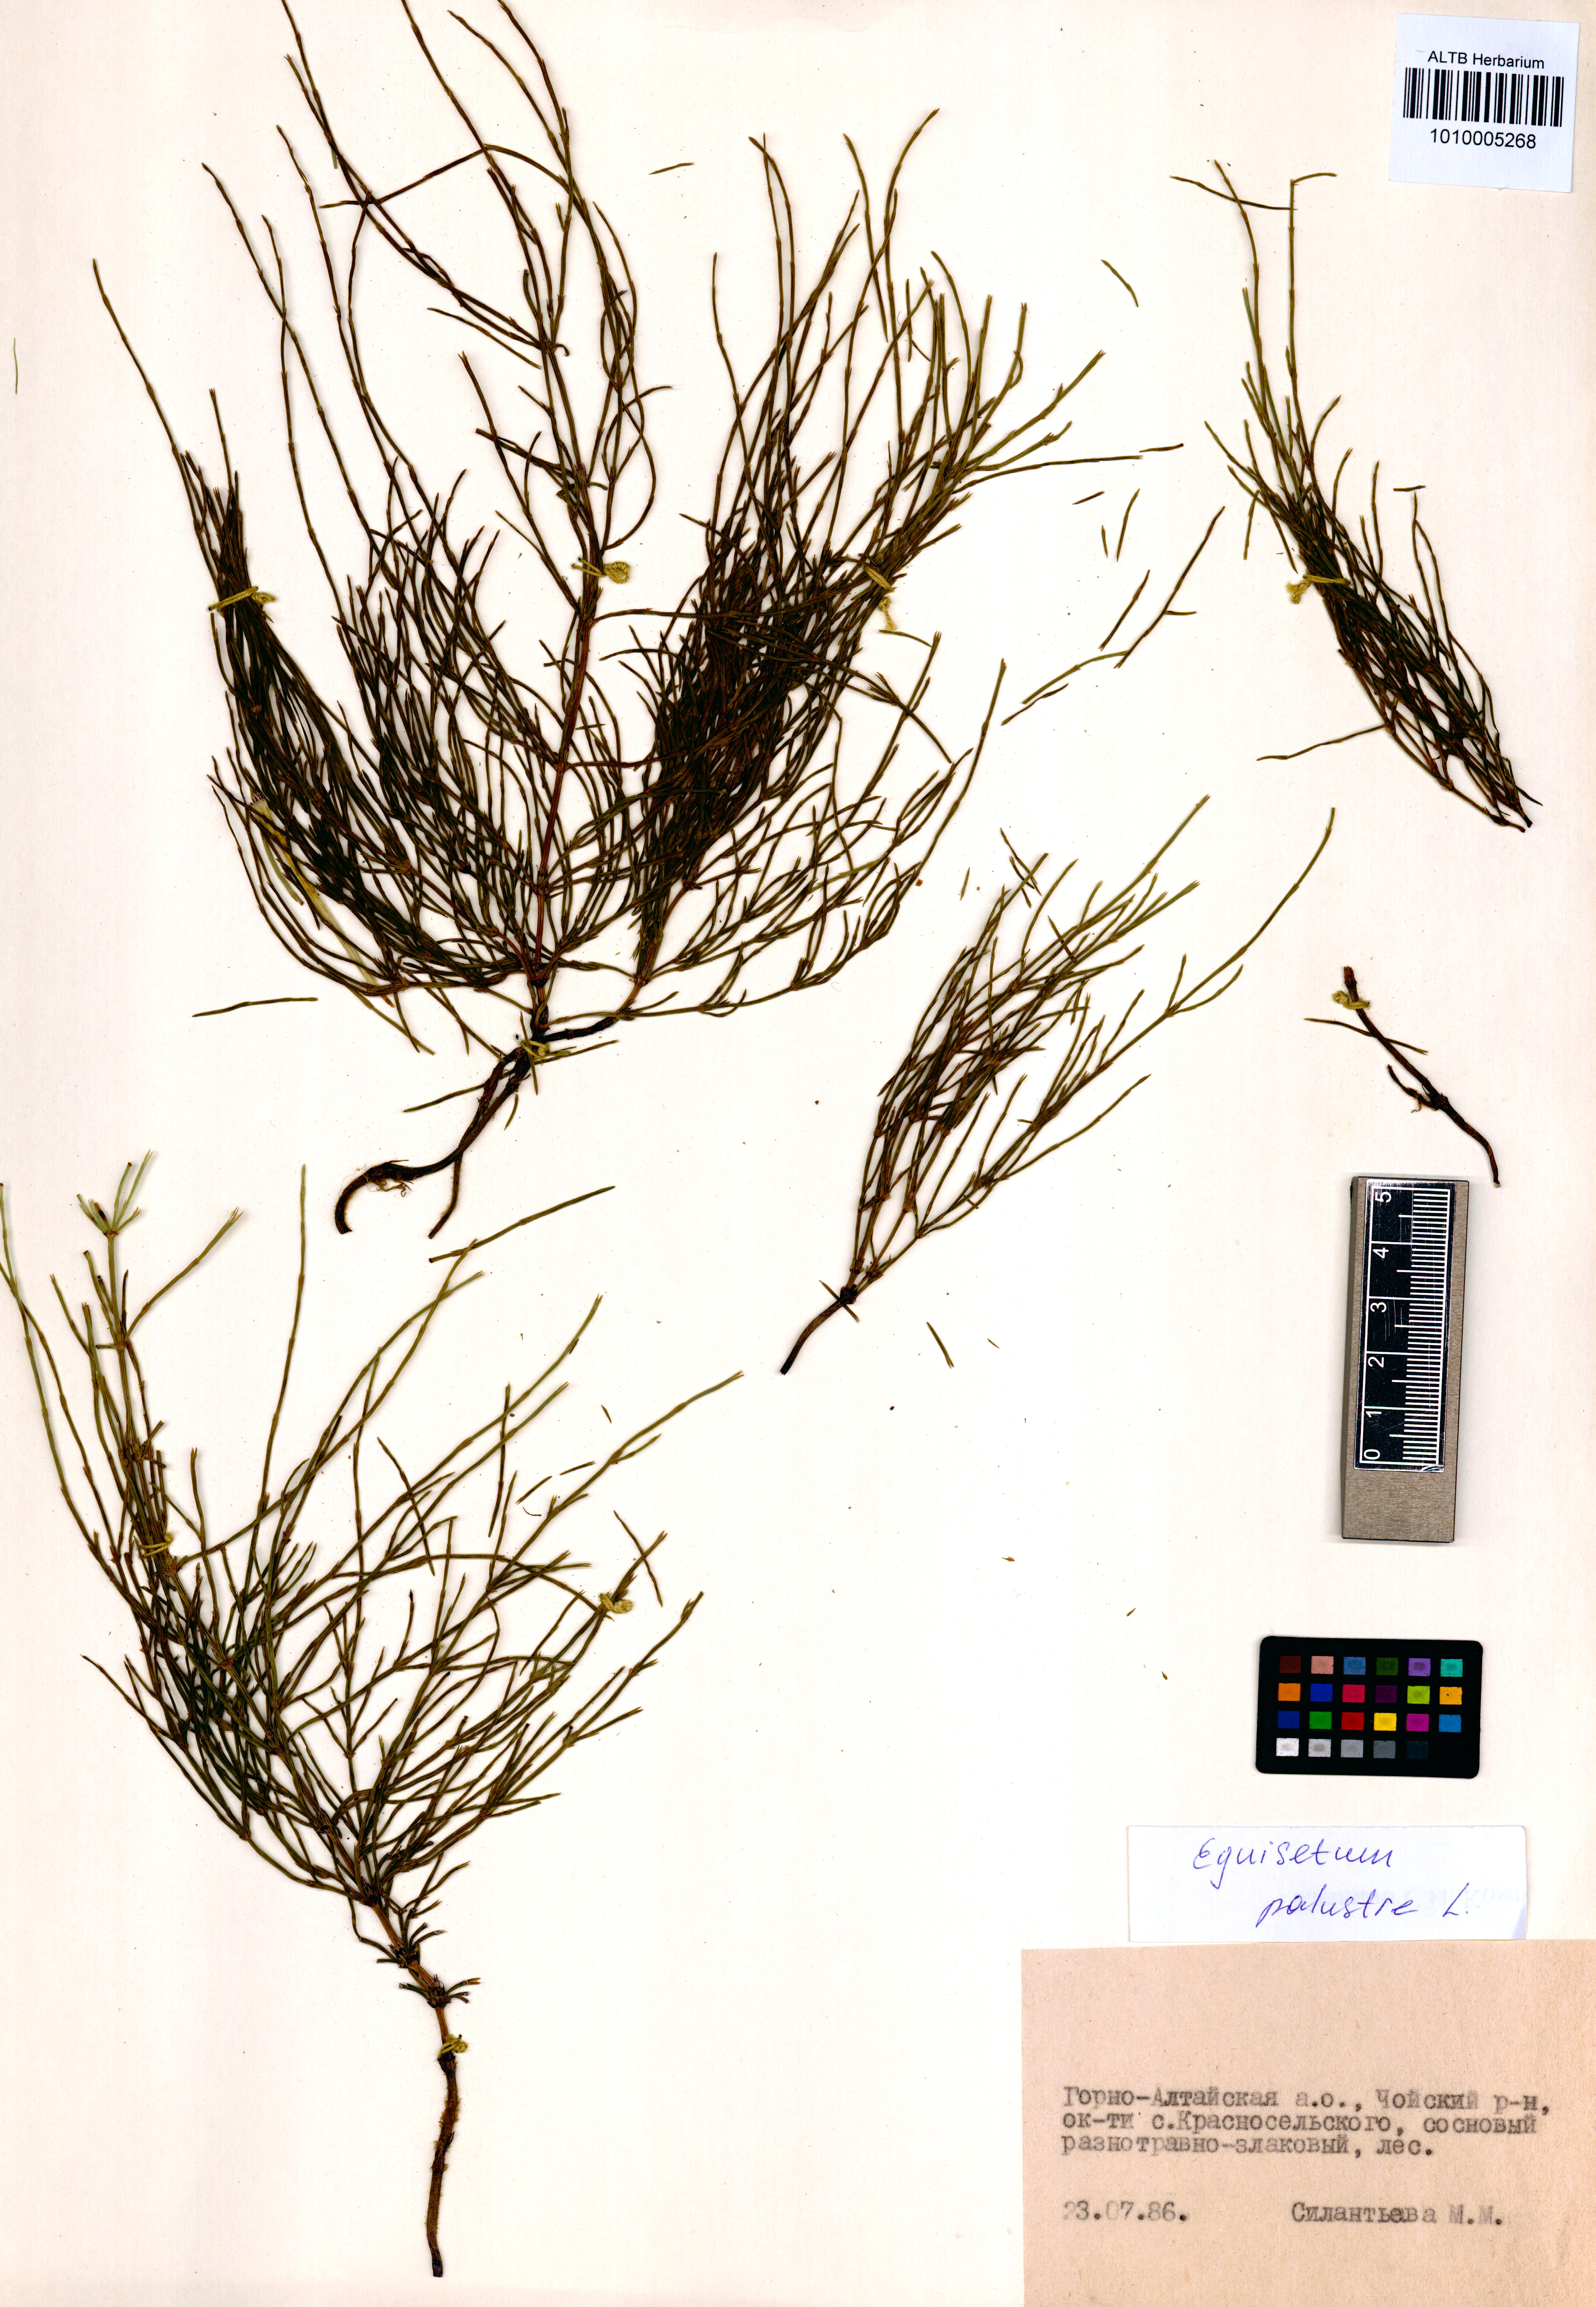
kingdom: Plantae
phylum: Tracheophyta
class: Polypodiopsida
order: Equisetales
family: Equisetaceae
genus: Equisetum
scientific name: Equisetum palustre
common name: Marsh horsetail
